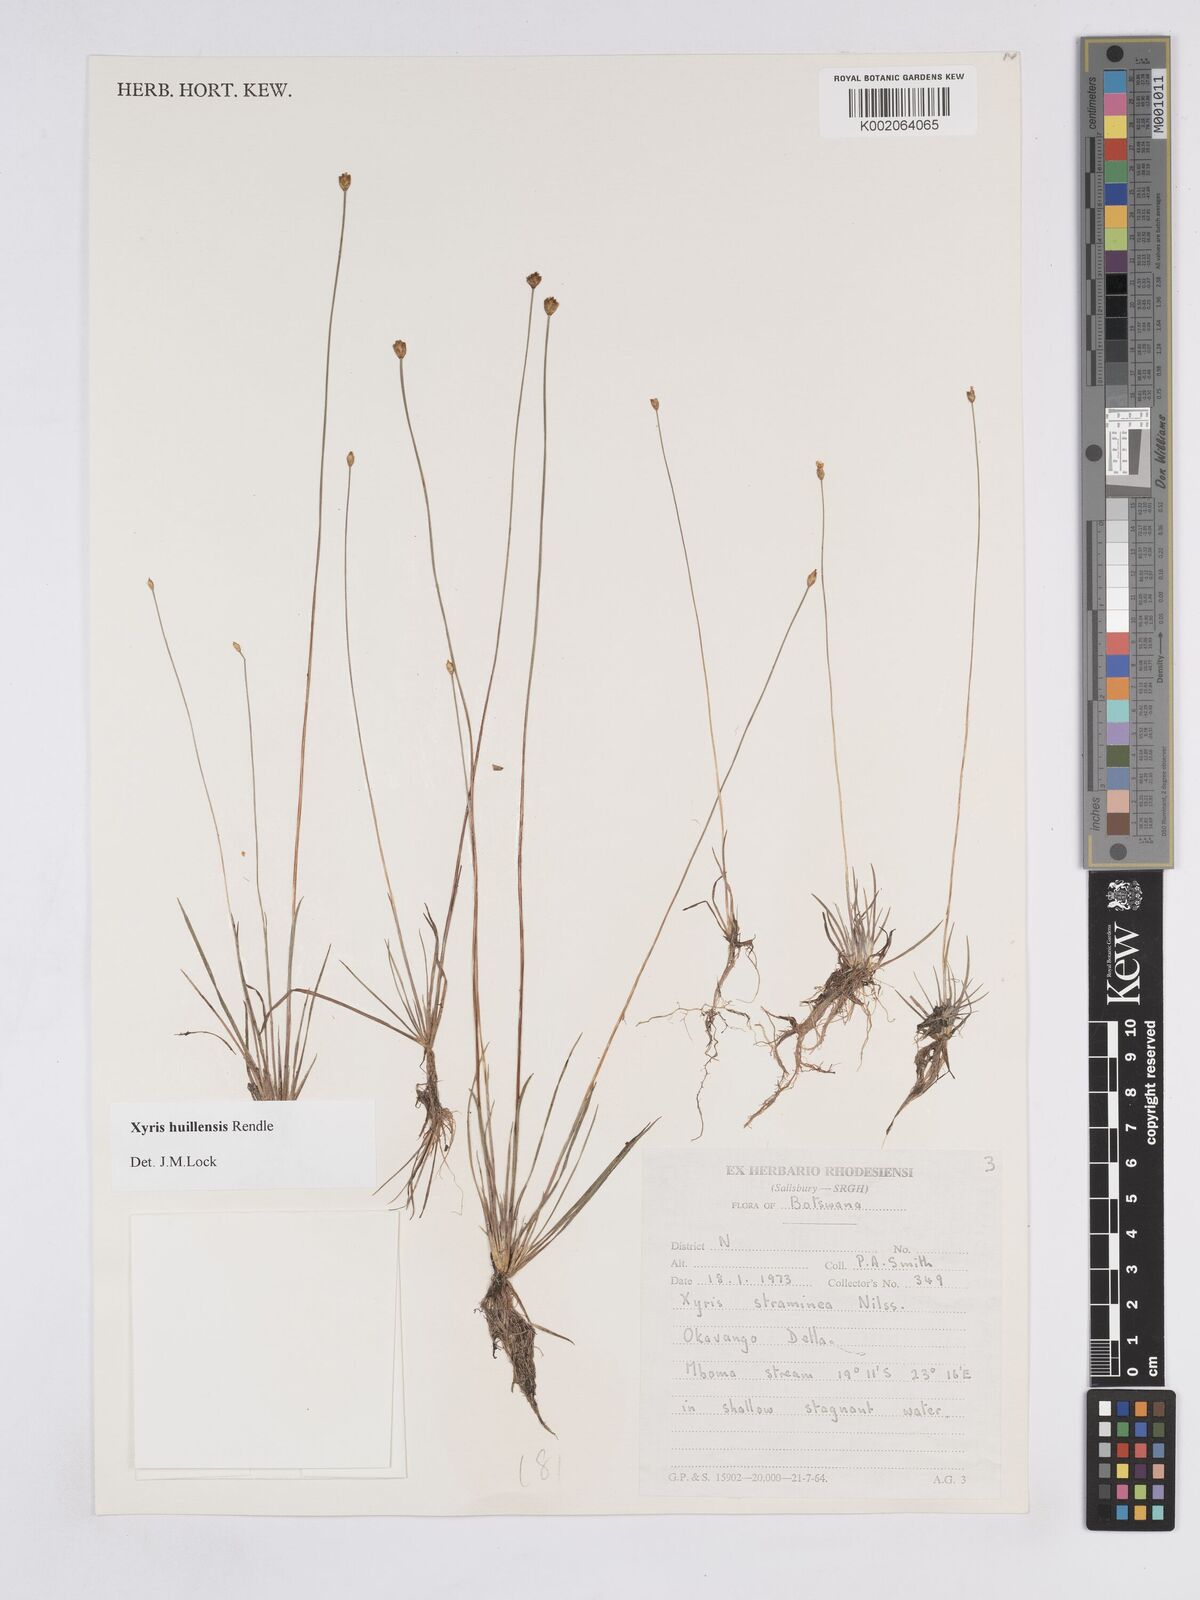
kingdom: Plantae
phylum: Tracheophyta
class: Liliopsida
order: Poales
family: Xyridaceae
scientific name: Xyridaceae
